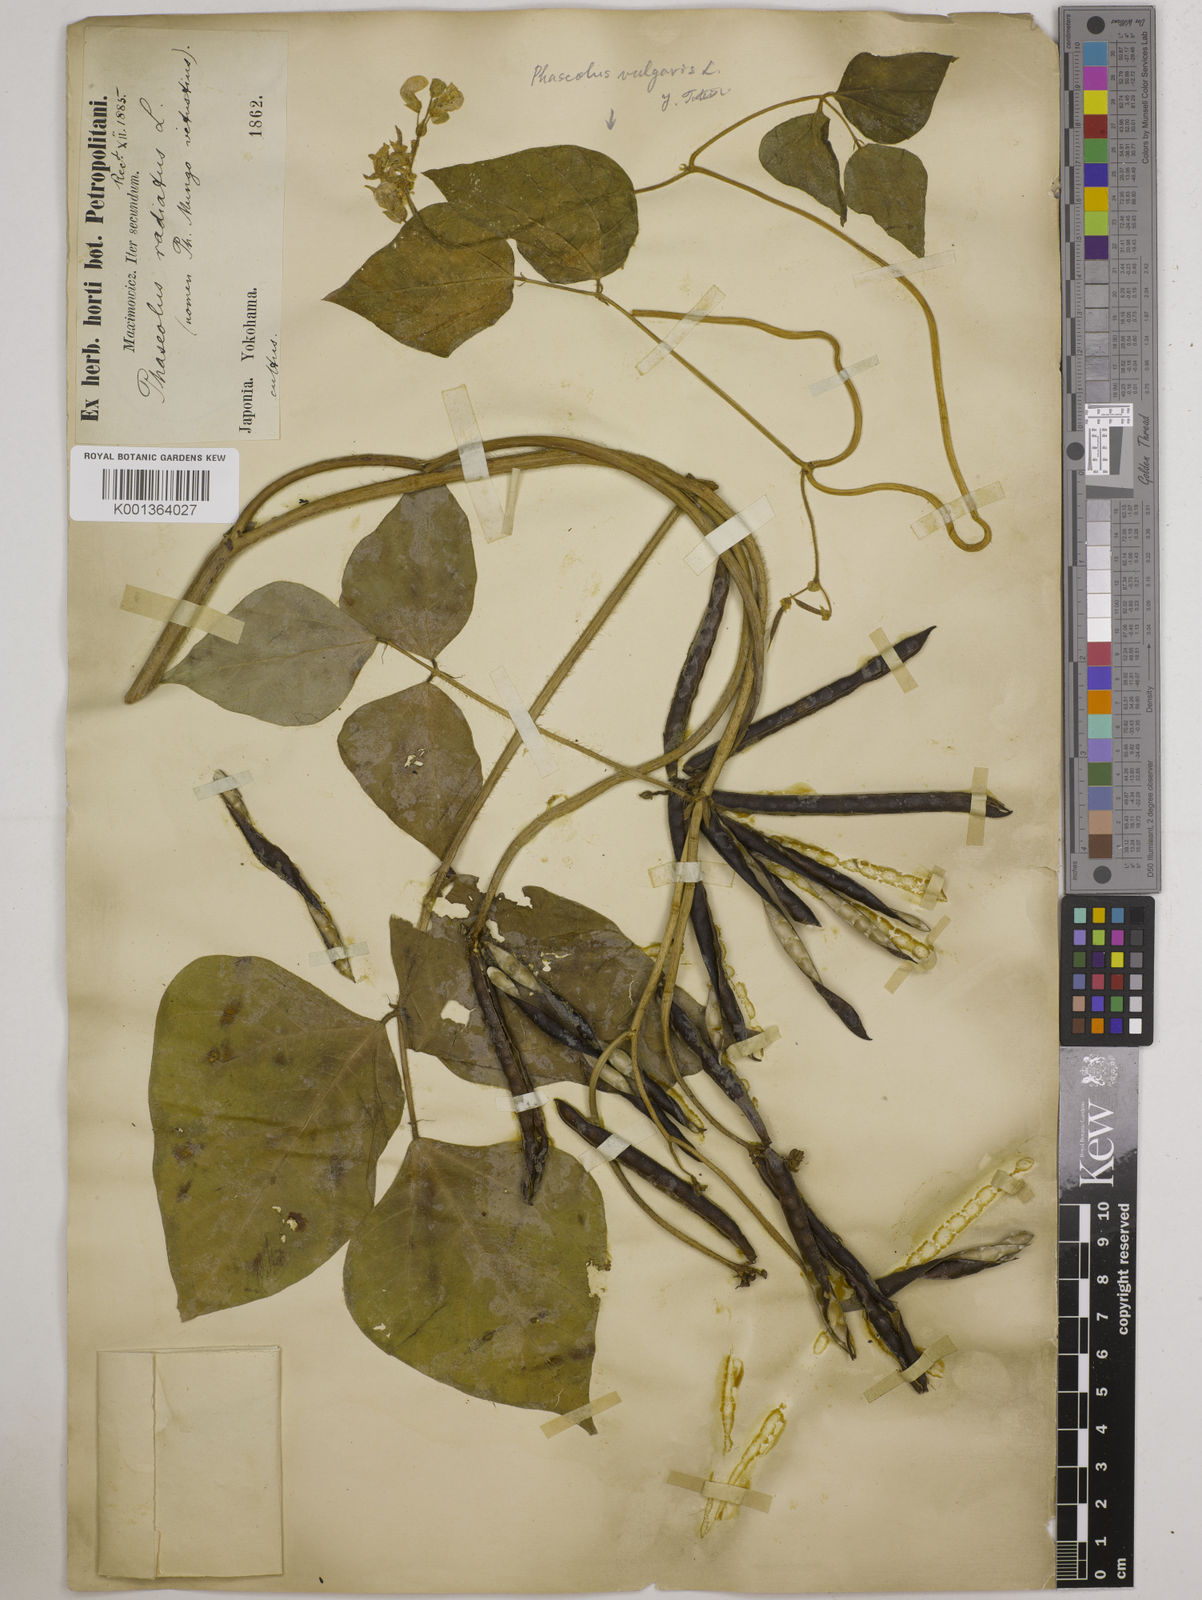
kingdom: Plantae
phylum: Tracheophyta
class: Magnoliopsida
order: Fabales
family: Fabaceae
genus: Vigna
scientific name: Vigna radiata
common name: Mung-bean
